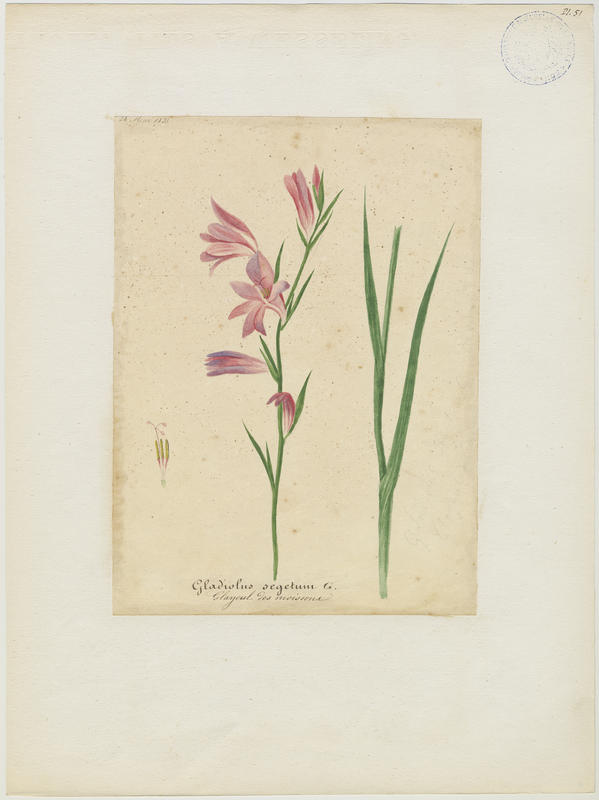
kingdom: Plantae
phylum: Tracheophyta
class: Liliopsida
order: Asparagales
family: Iridaceae
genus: Gladiolus
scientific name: Gladiolus byzantinus
